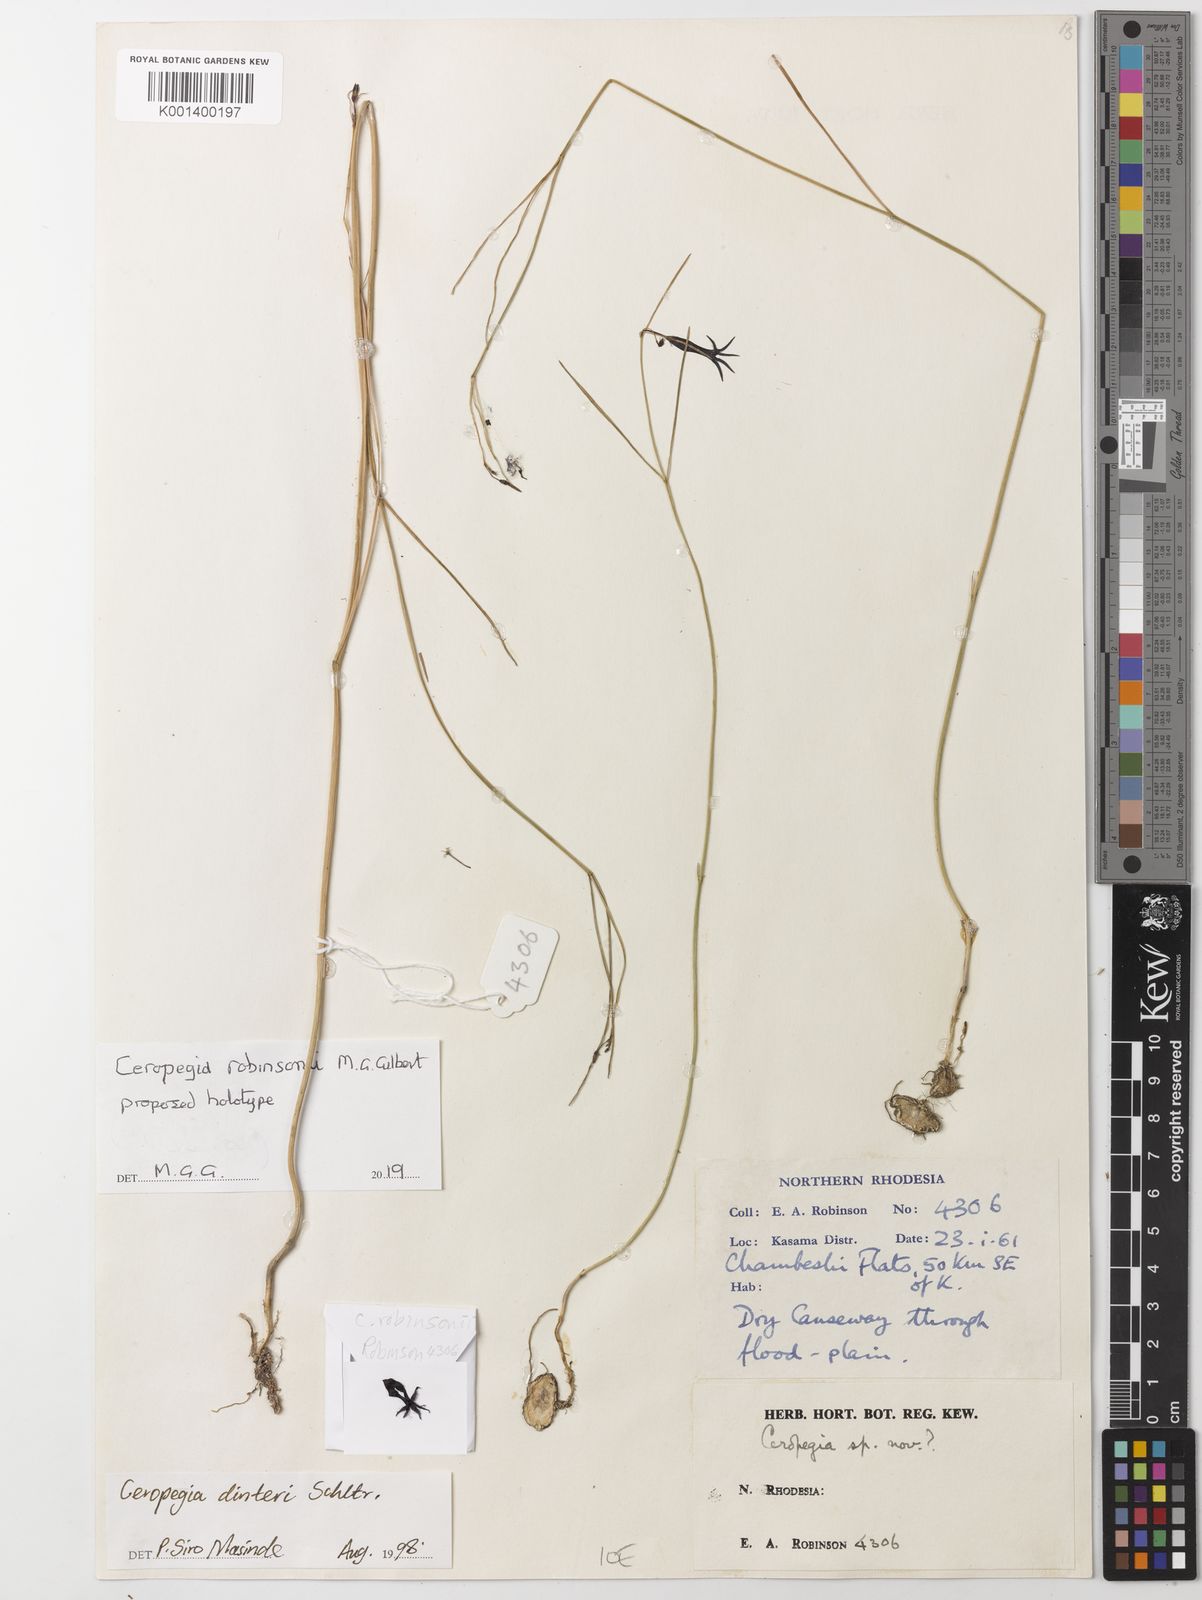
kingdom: Plantae
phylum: Tracheophyta
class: Magnoliopsida
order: Gentianales
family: Apocynaceae
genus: Ceropegia
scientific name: Ceropegia
